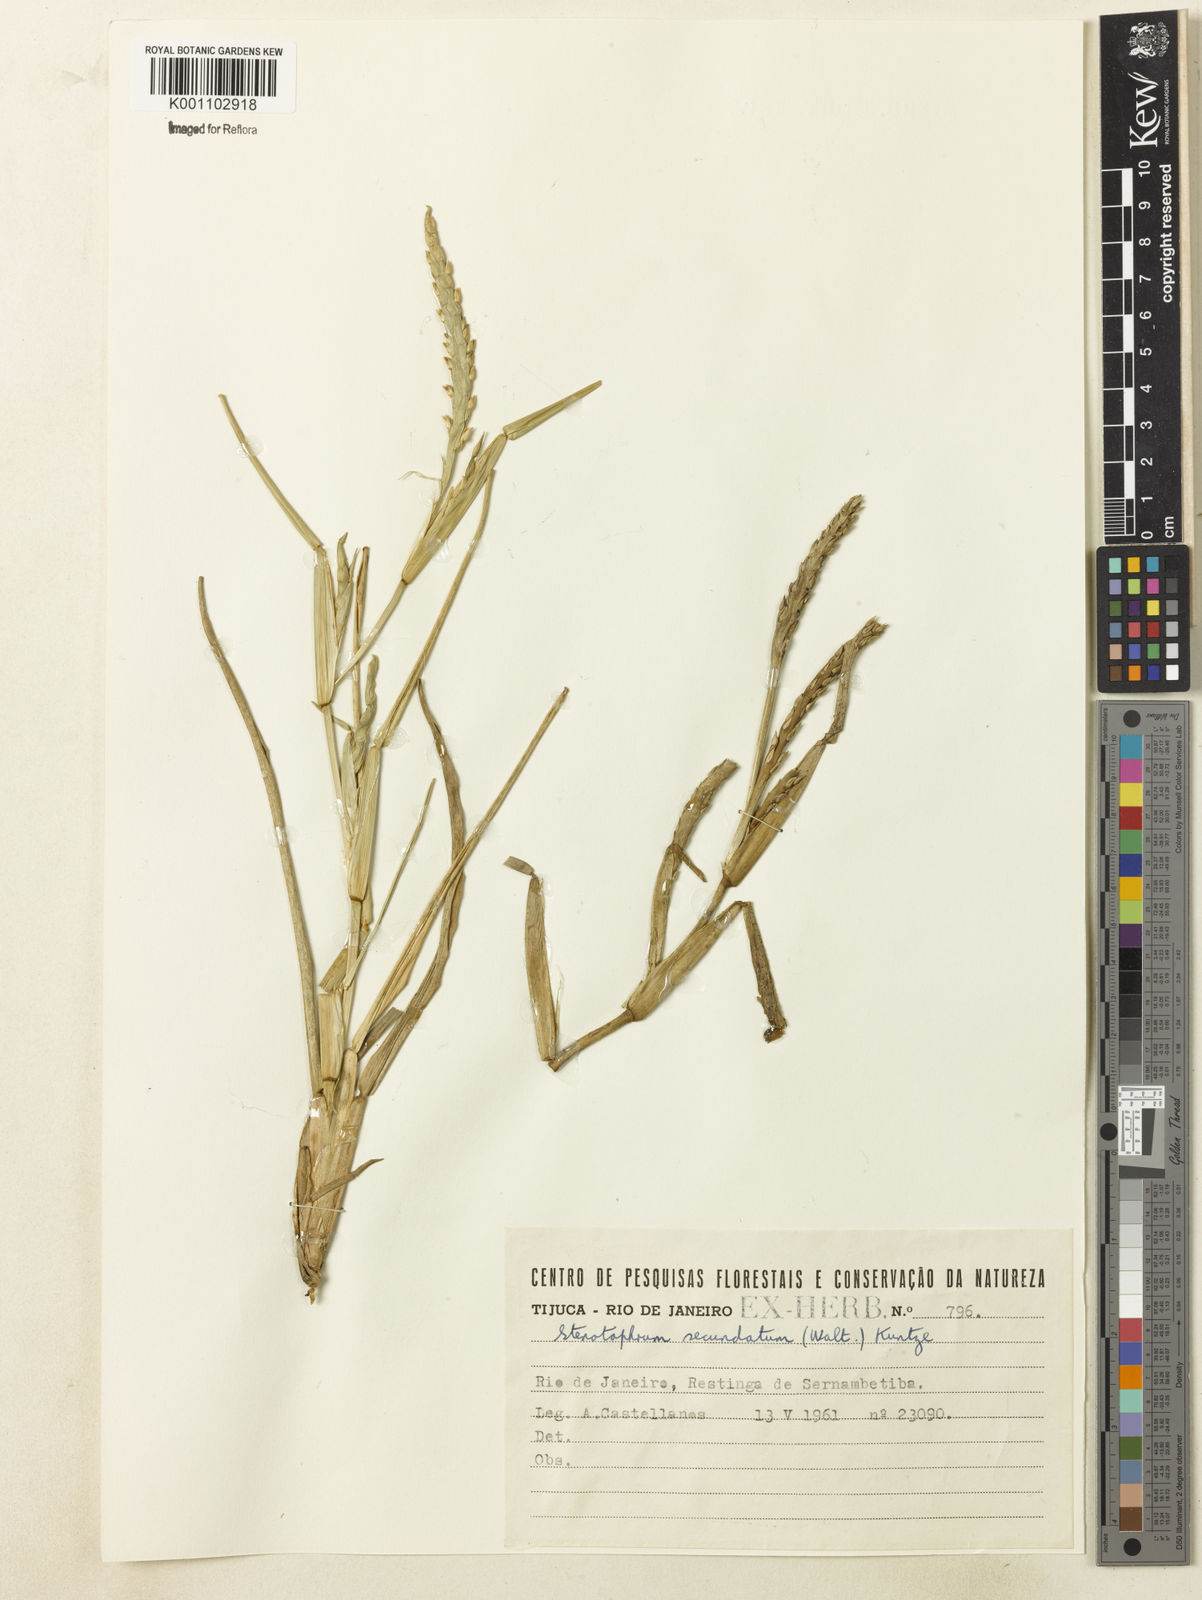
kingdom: Plantae
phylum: Tracheophyta
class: Liliopsida
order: Poales
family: Poaceae
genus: Stenotaphrum
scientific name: Stenotaphrum secundatum
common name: St. augustine grass
